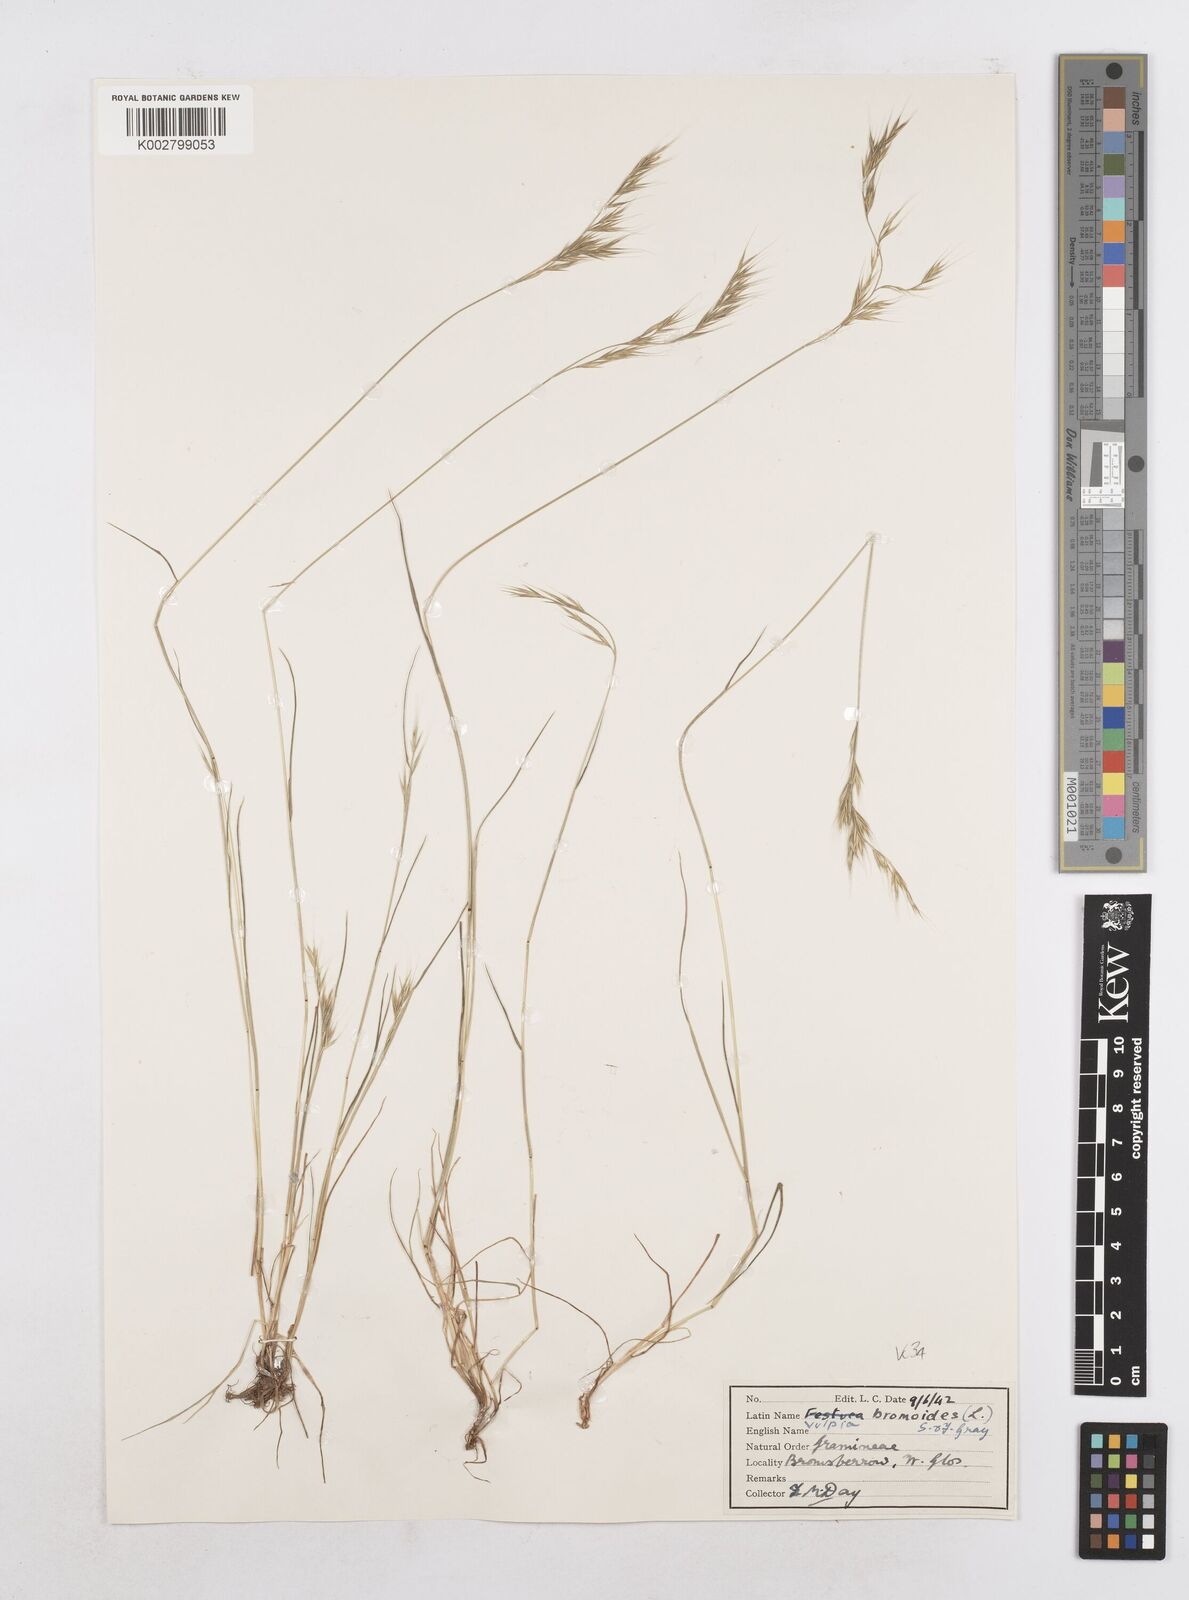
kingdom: Plantae
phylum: Tracheophyta
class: Liliopsida
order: Poales
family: Poaceae
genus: Festuca
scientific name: Festuca bromoides
